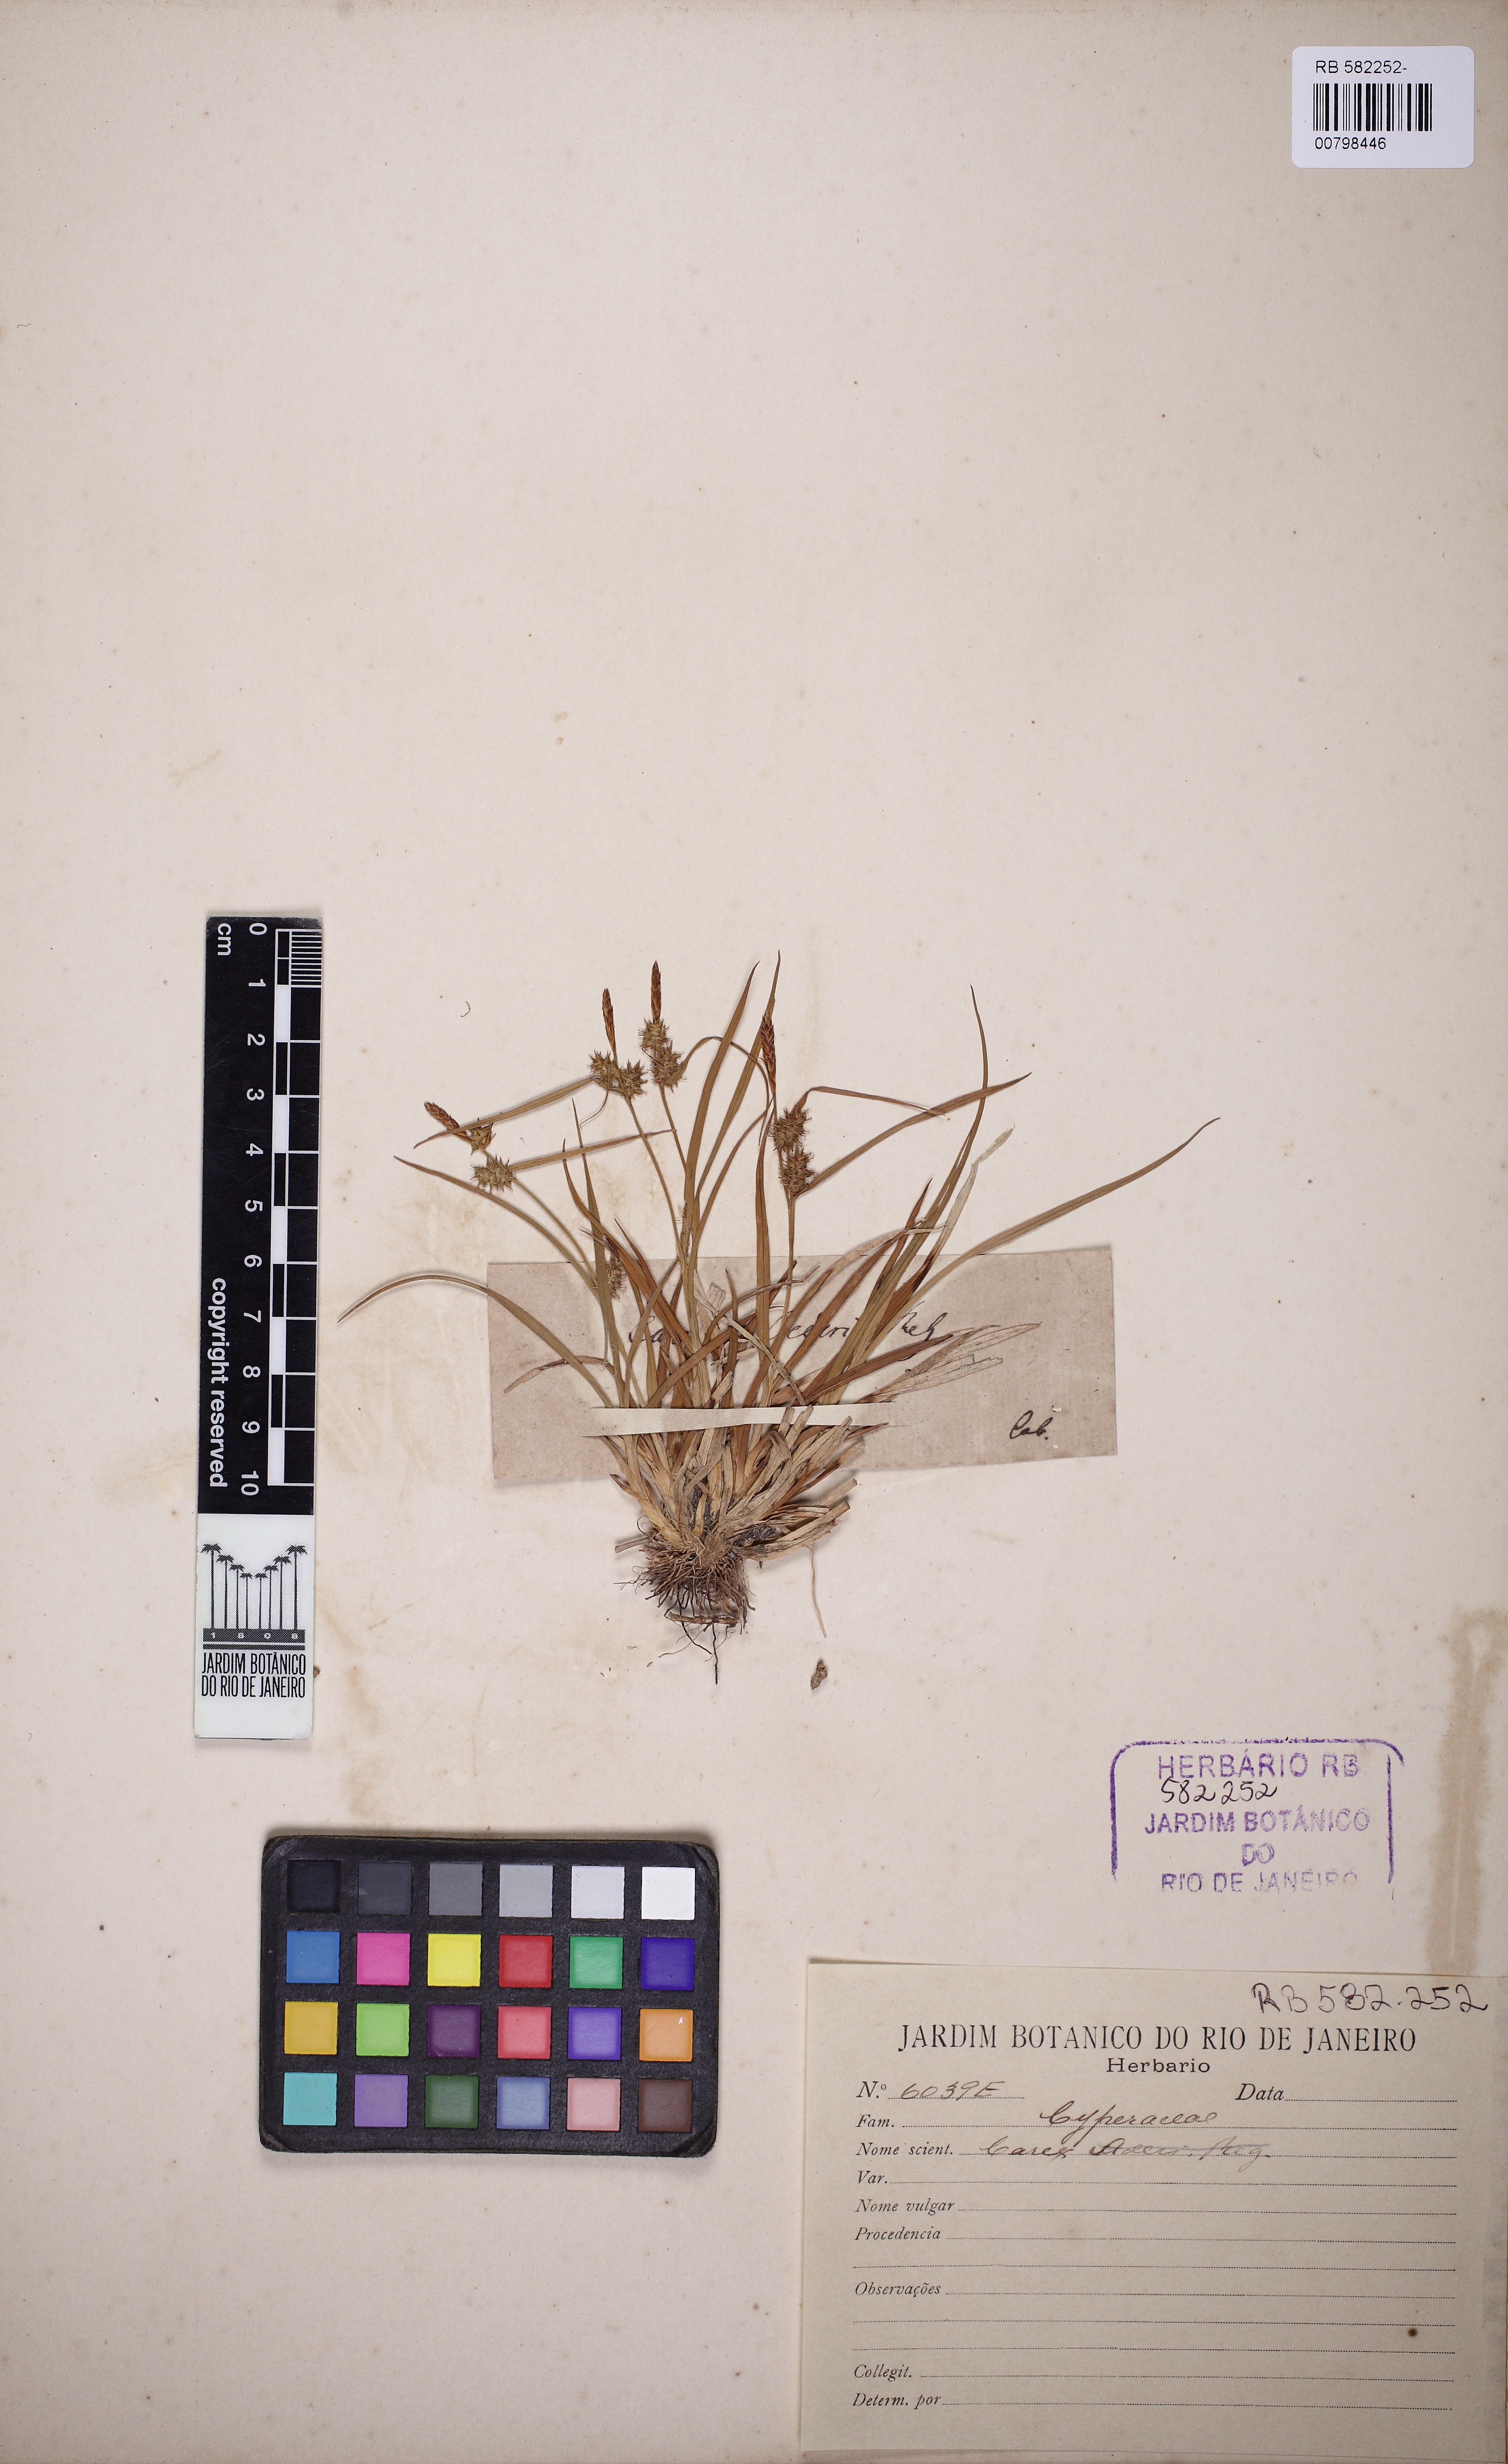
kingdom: Plantae
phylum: Tracheophyta
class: Liliopsida
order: Poales
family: Cyperaceae
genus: Carex
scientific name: Carex
